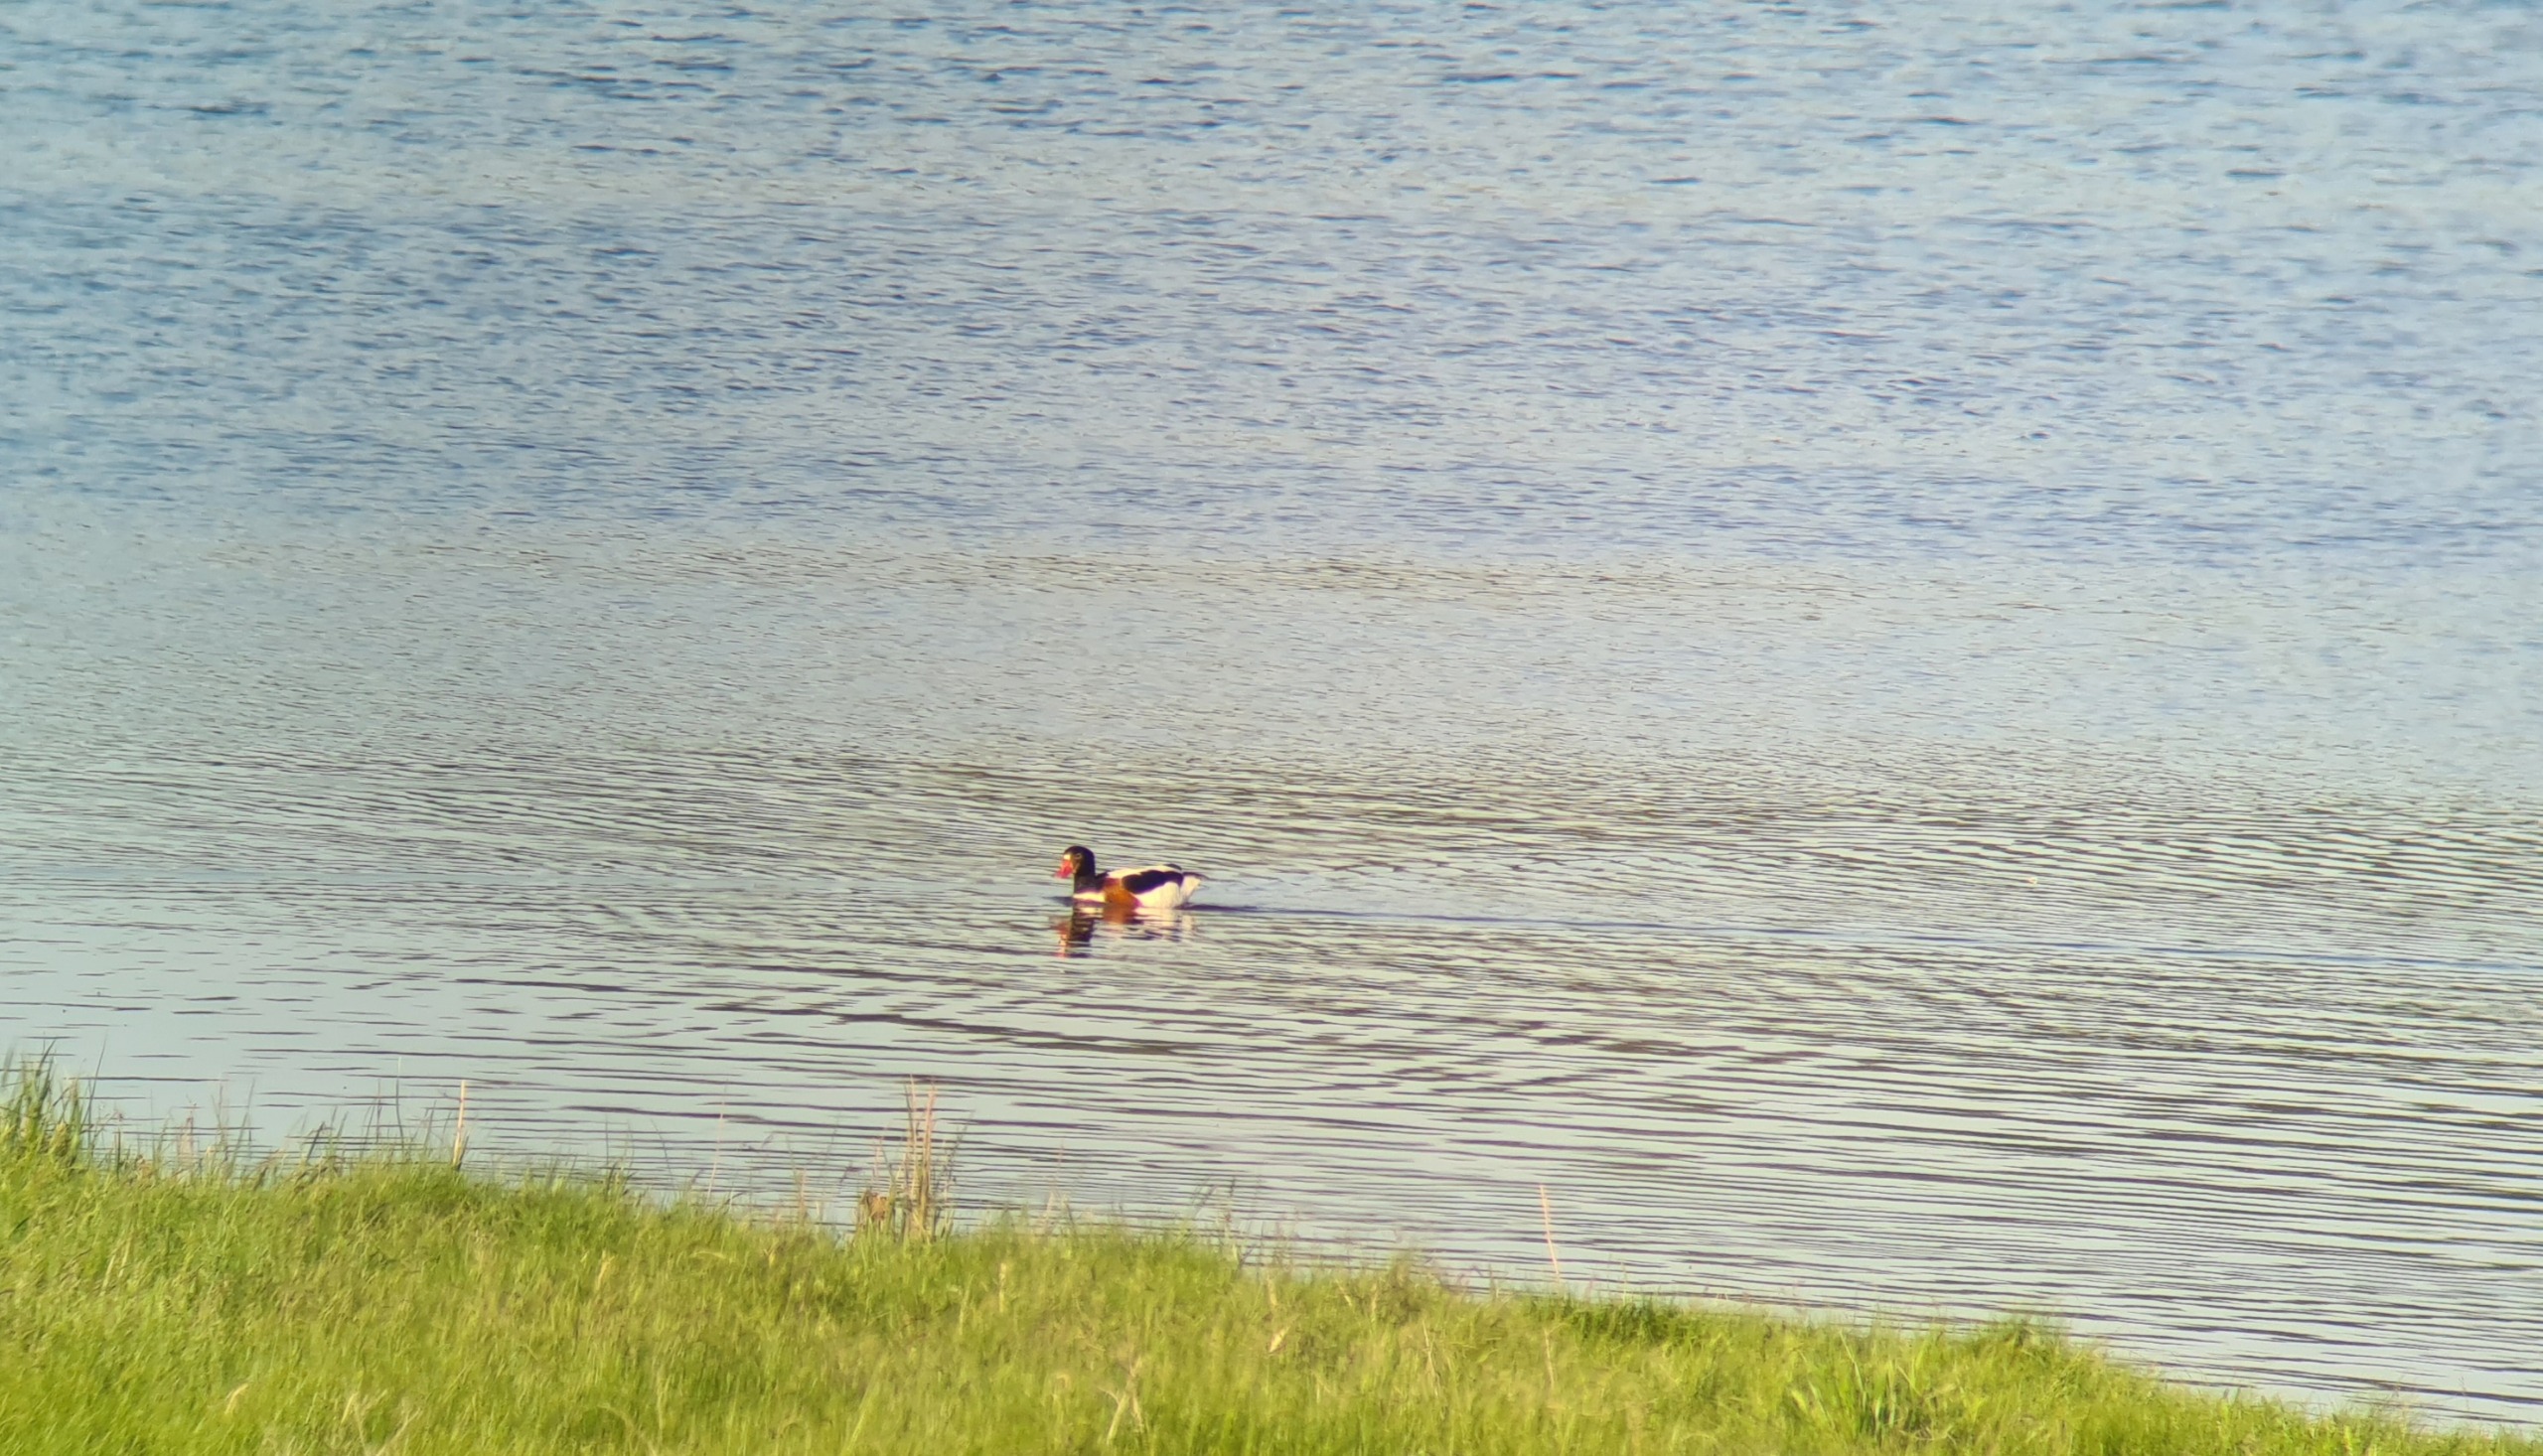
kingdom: Animalia
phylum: Chordata
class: Aves
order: Anseriformes
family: Anatidae
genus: Tadorna
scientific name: Tadorna tadorna
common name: Gravand
